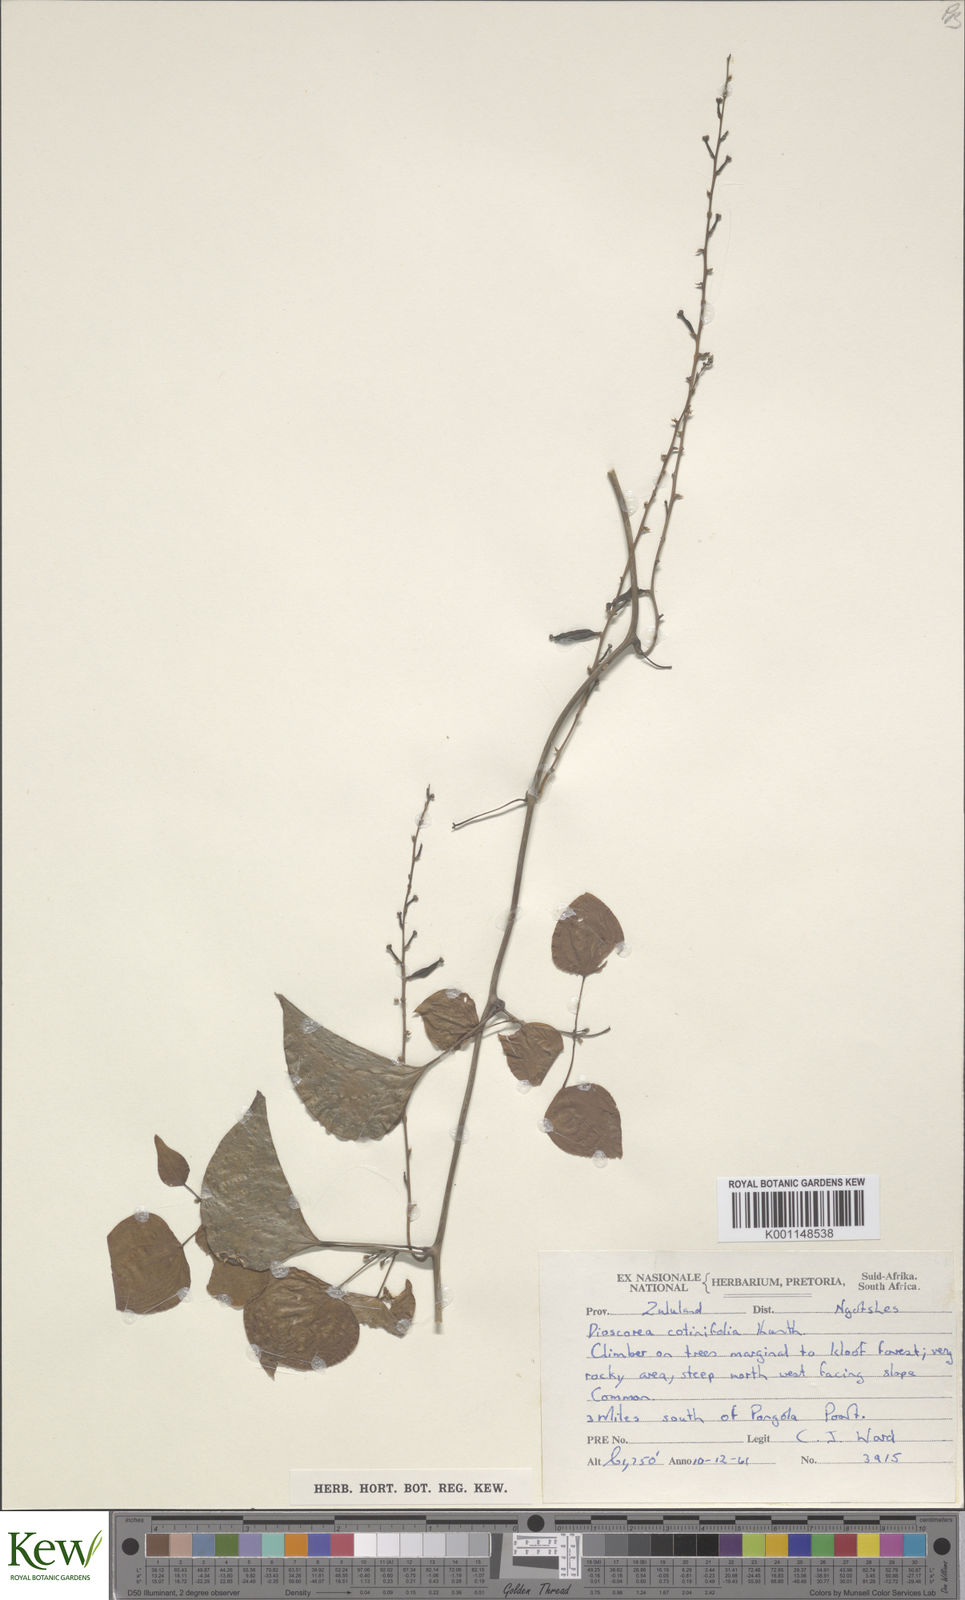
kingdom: Plantae
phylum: Tracheophyta
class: Liliopsida
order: Dioscoreales
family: Dioscoreaceae
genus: Dioscorea
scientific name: Dioscorea cotinifolia
